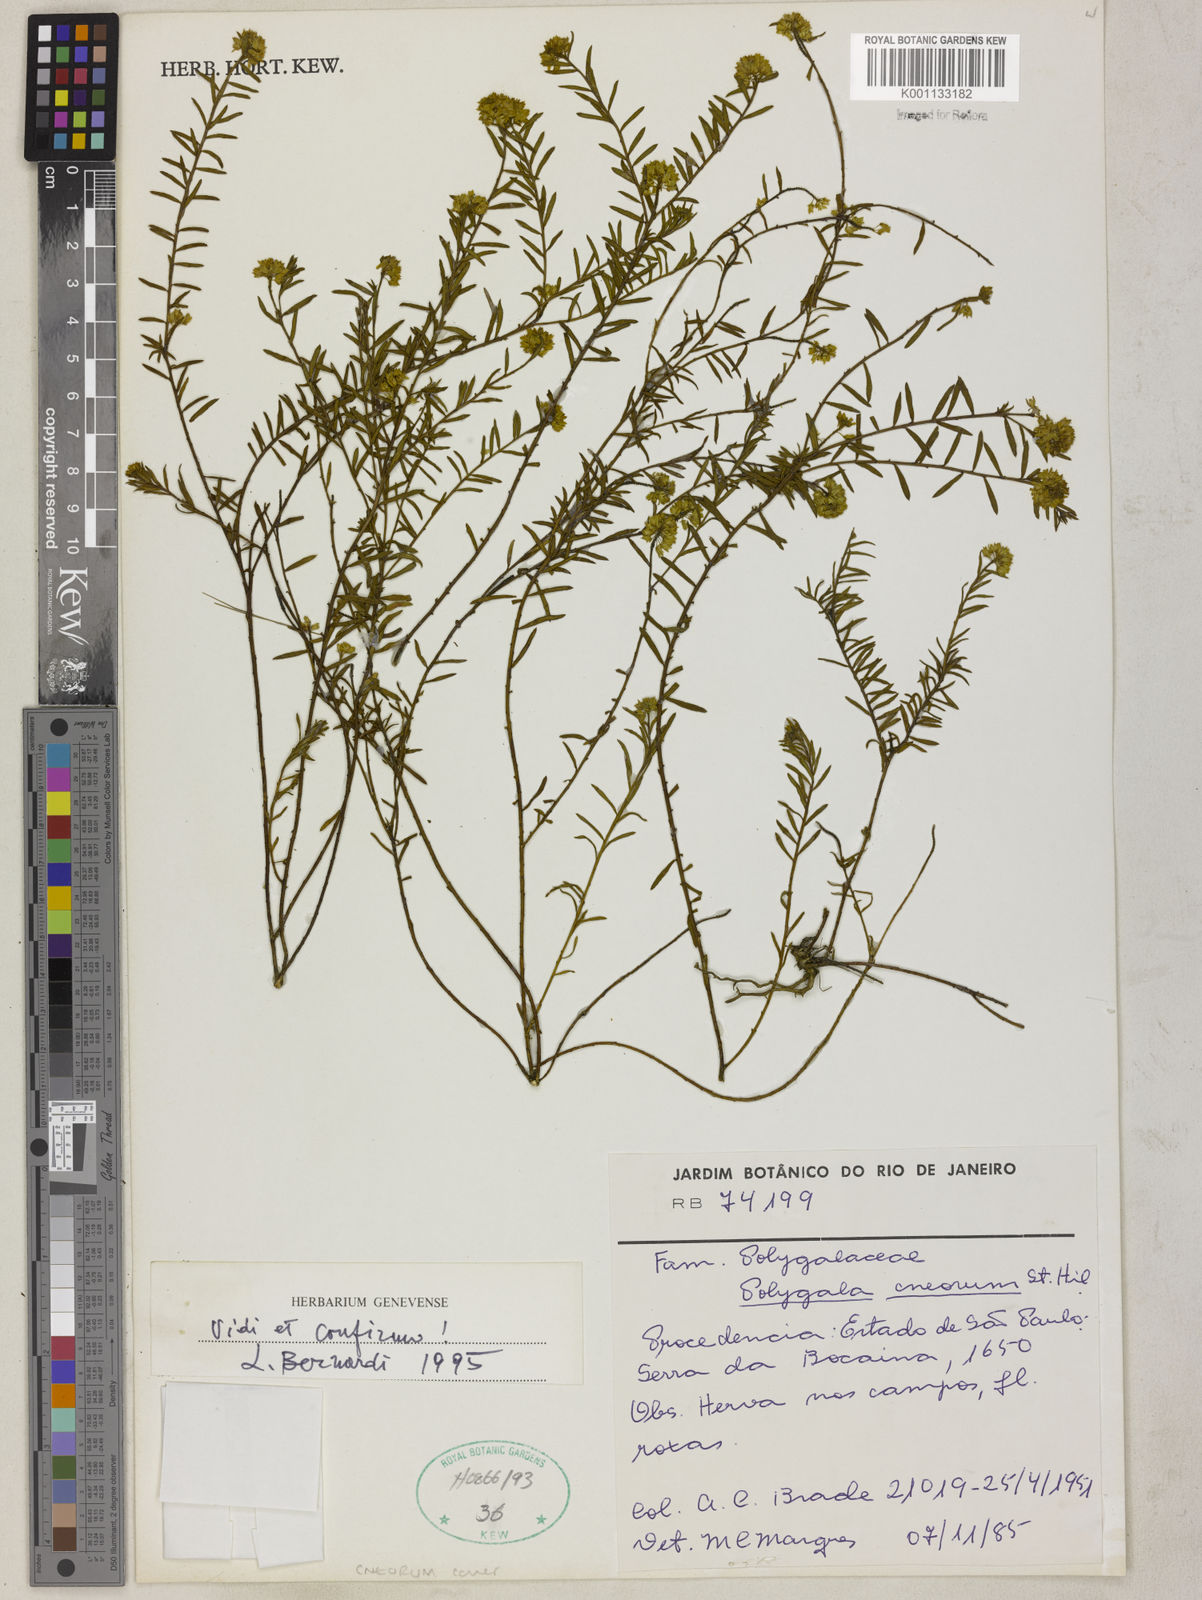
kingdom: Plantae
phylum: Tracheophyta
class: Magnoliopsida
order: Fabales
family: Polygalaceae
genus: Polygala
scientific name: Polygala cneorum
